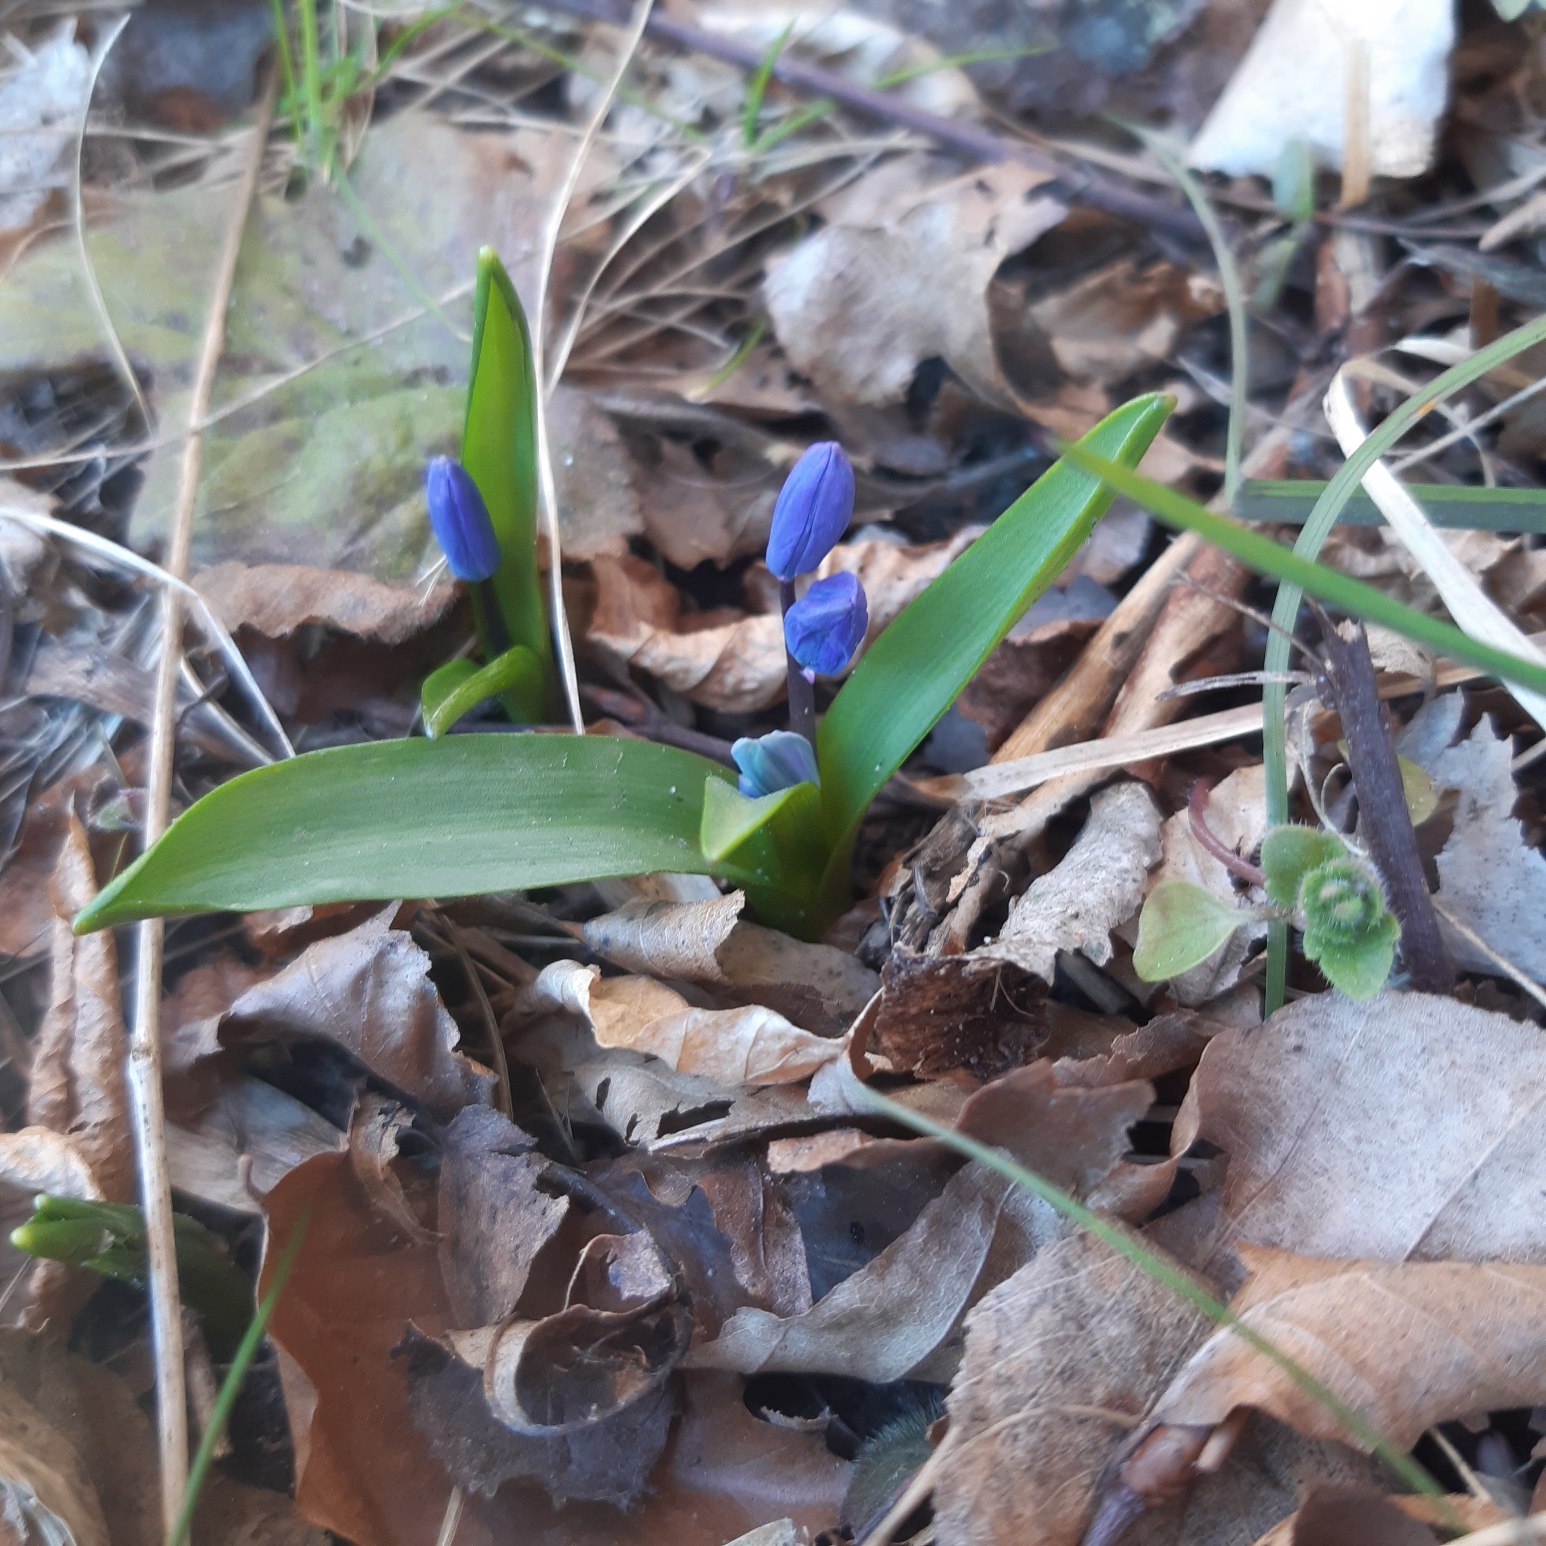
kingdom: Plantae
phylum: Tracheophyta
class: Liliopsida
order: Asparagales
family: Asparagaceae
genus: Scilla
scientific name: Scilla siberica
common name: Russisk skilla
